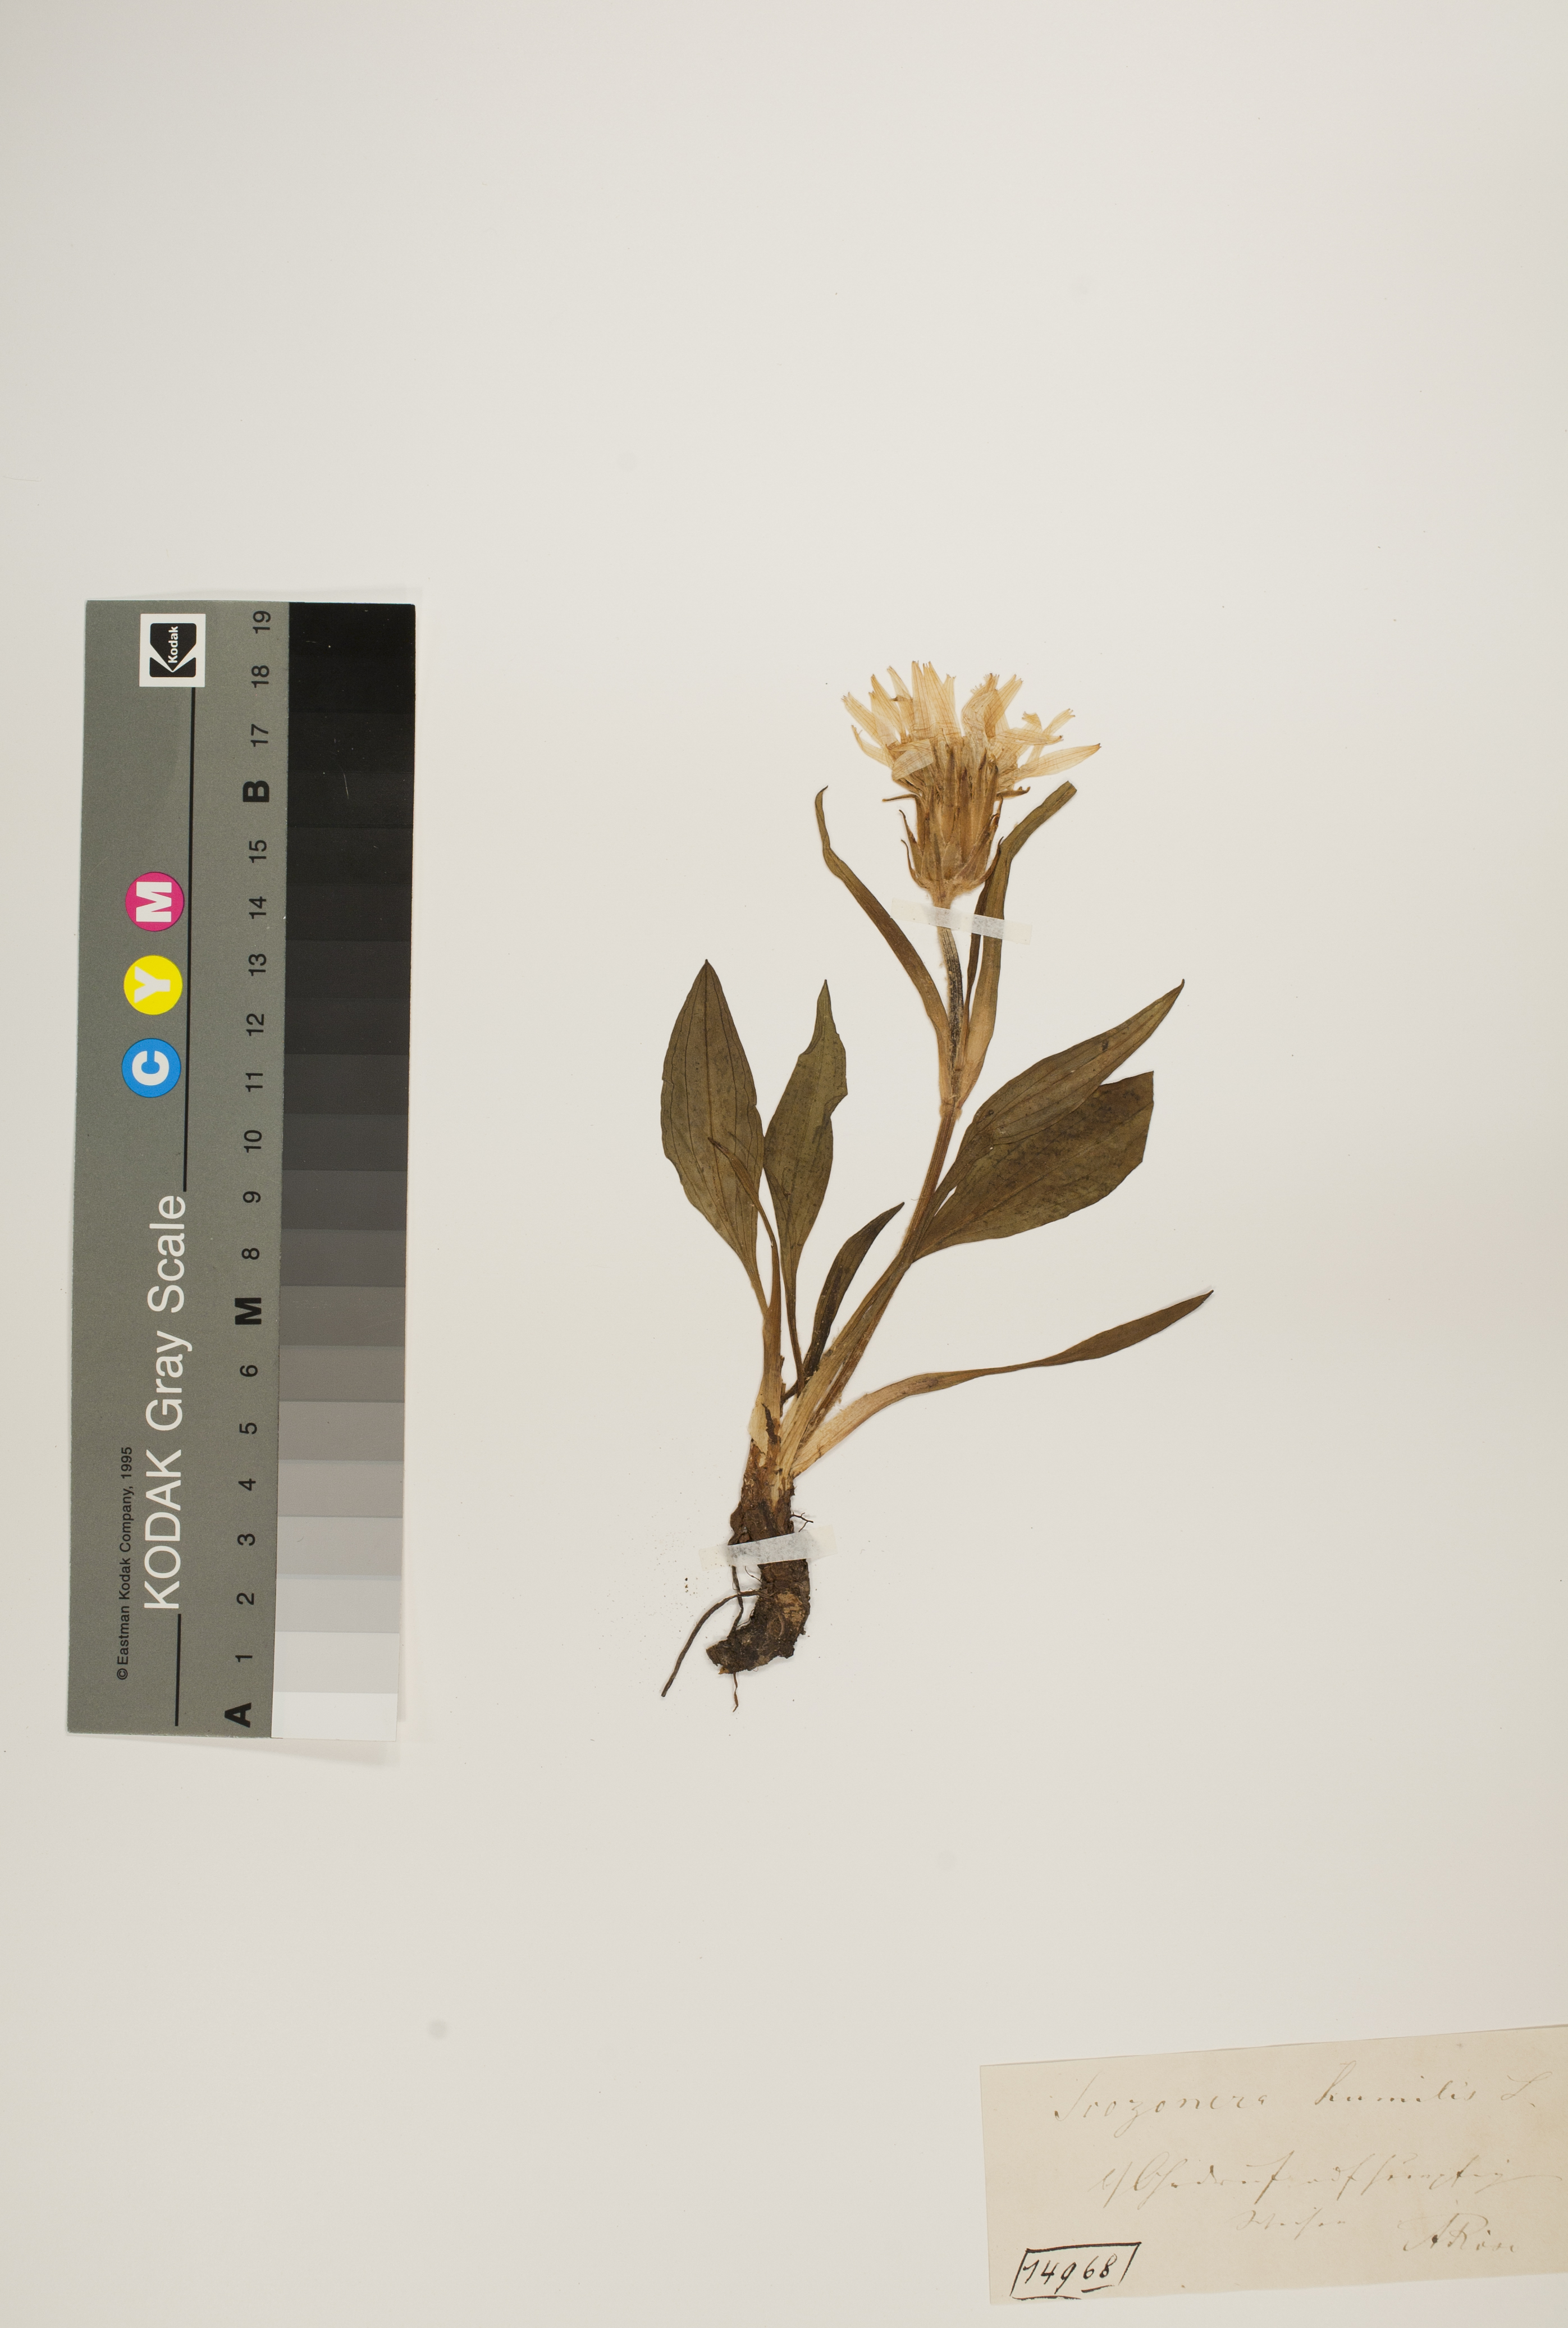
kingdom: Plantae
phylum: Tracheophyta
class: Magnoliopsida
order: Asterales
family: Asteraceae
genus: Scorzonera
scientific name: Scorzonera humilis
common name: Viper's-grass
